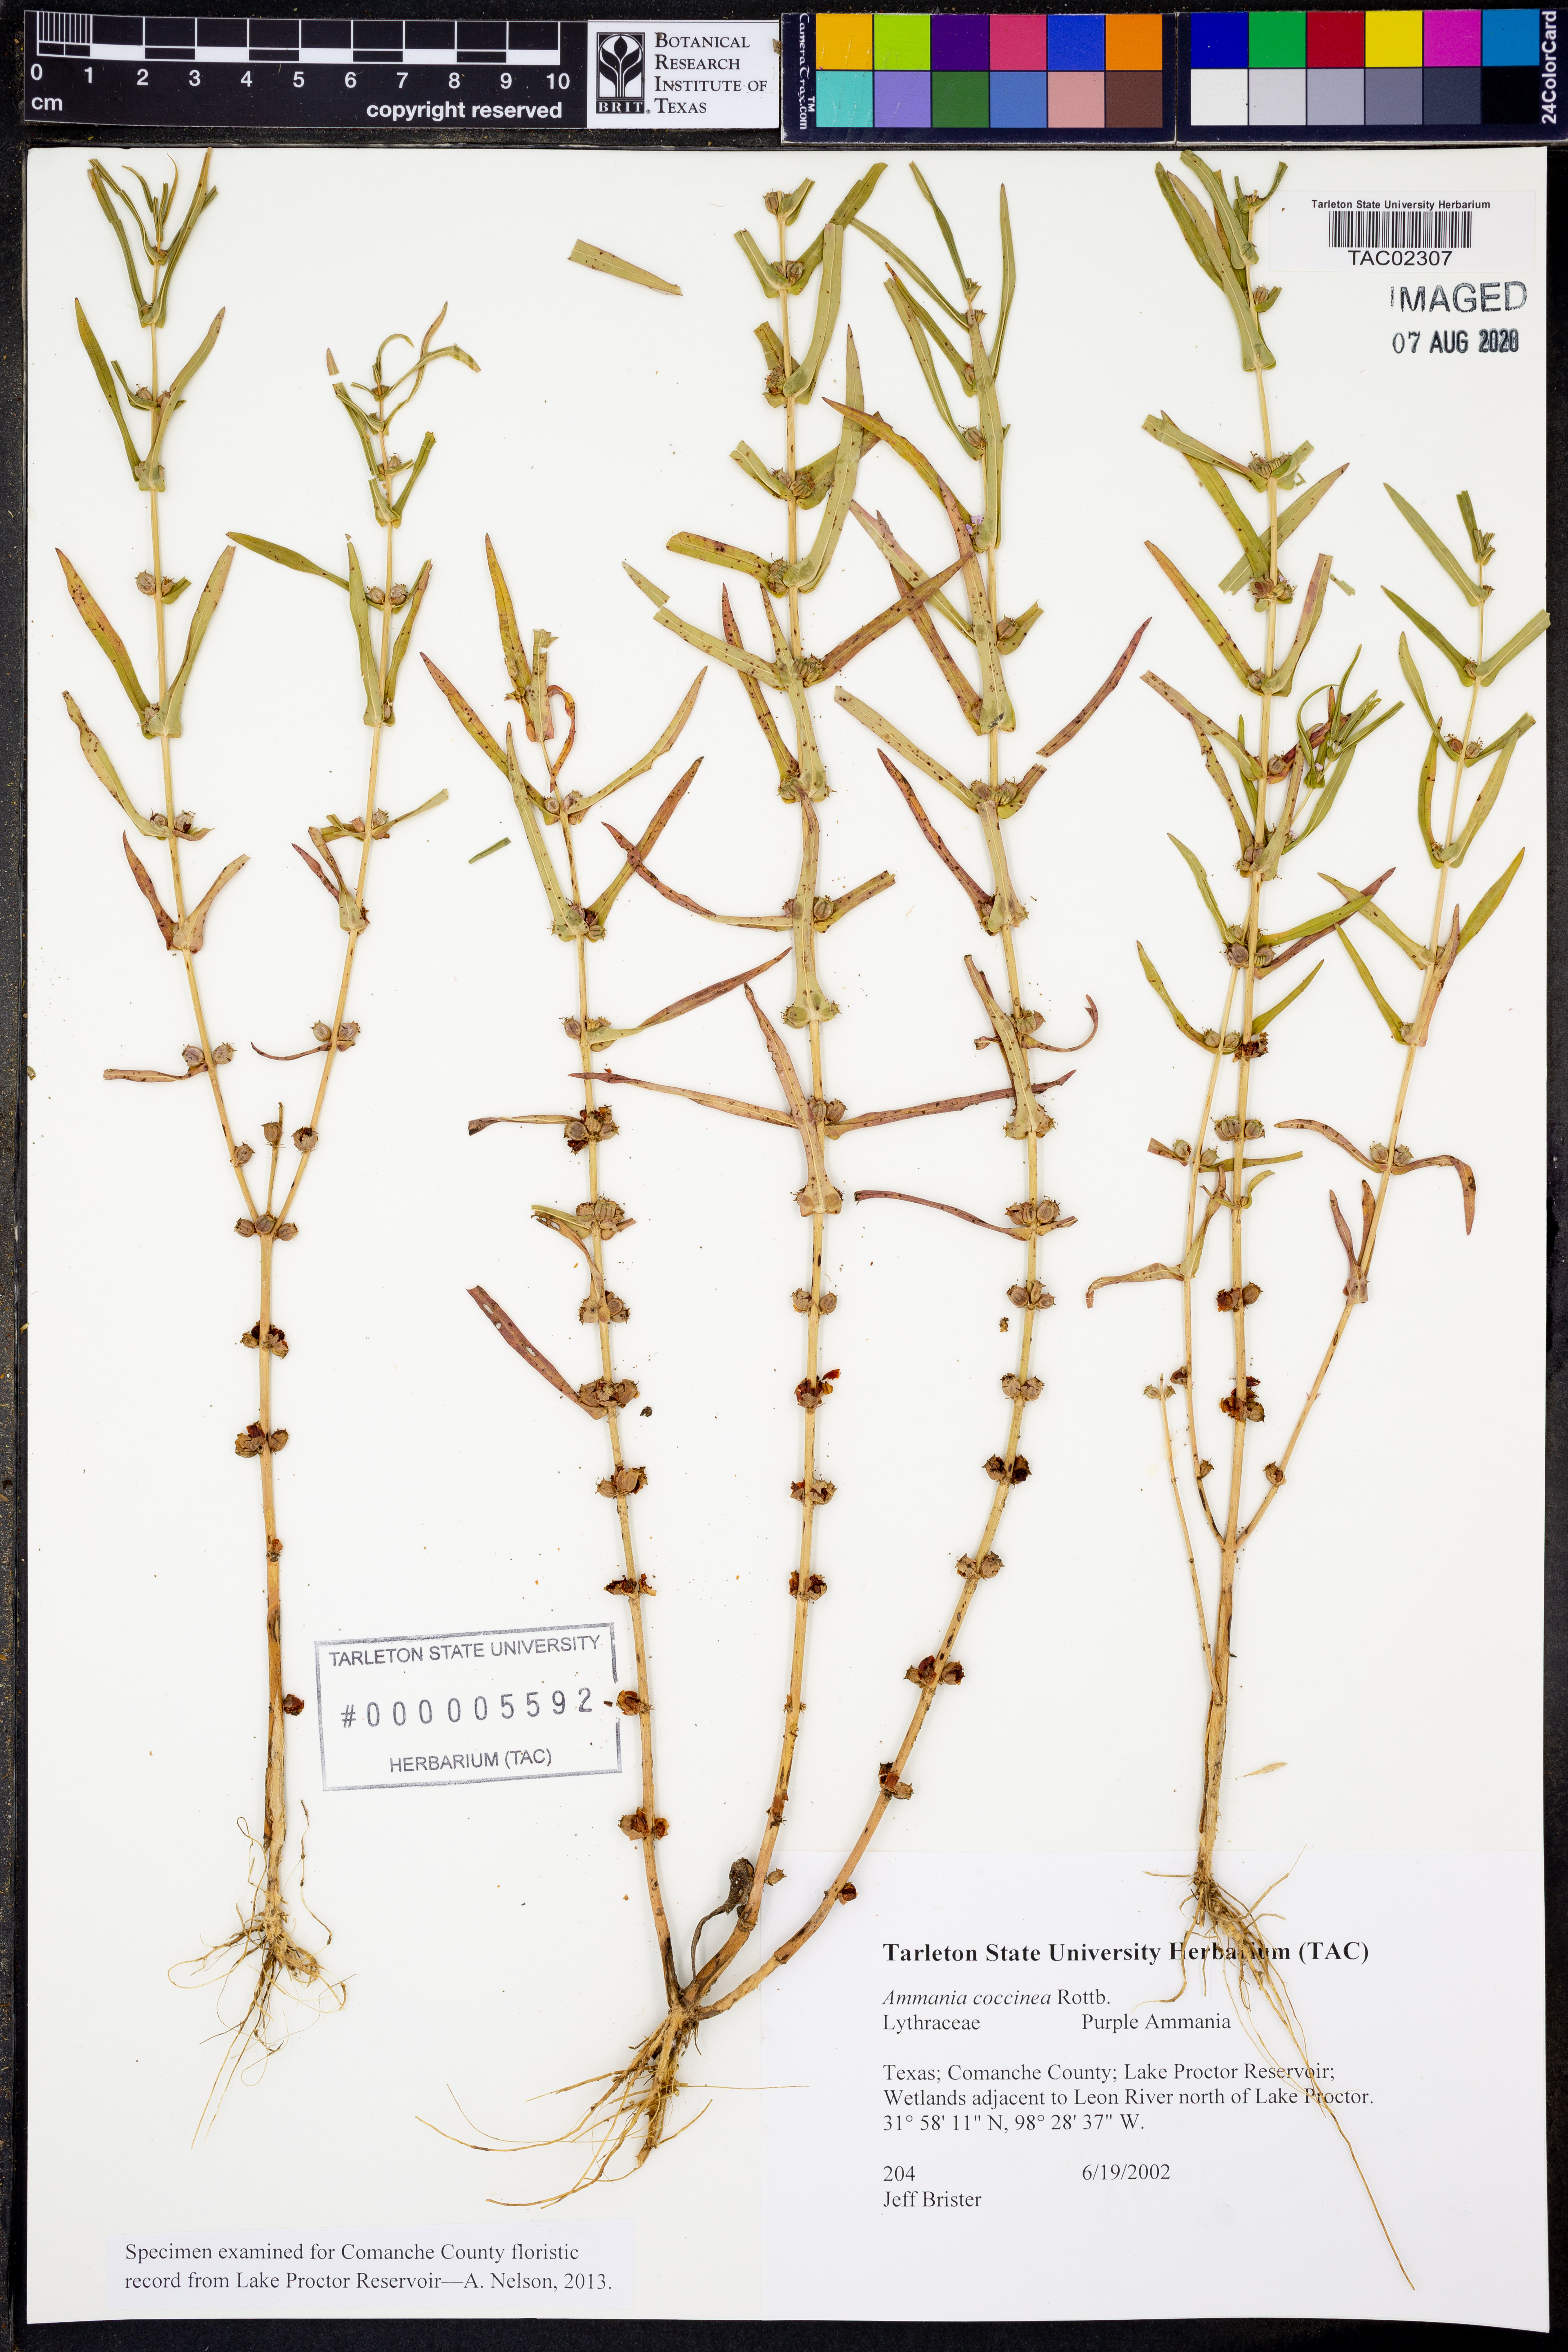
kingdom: Plantae
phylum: Tracheophyta
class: Magnoliopsida
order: Myrtales
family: Lythraceae
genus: Ammannia
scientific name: Ammannia coccinea
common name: Valley redstem
